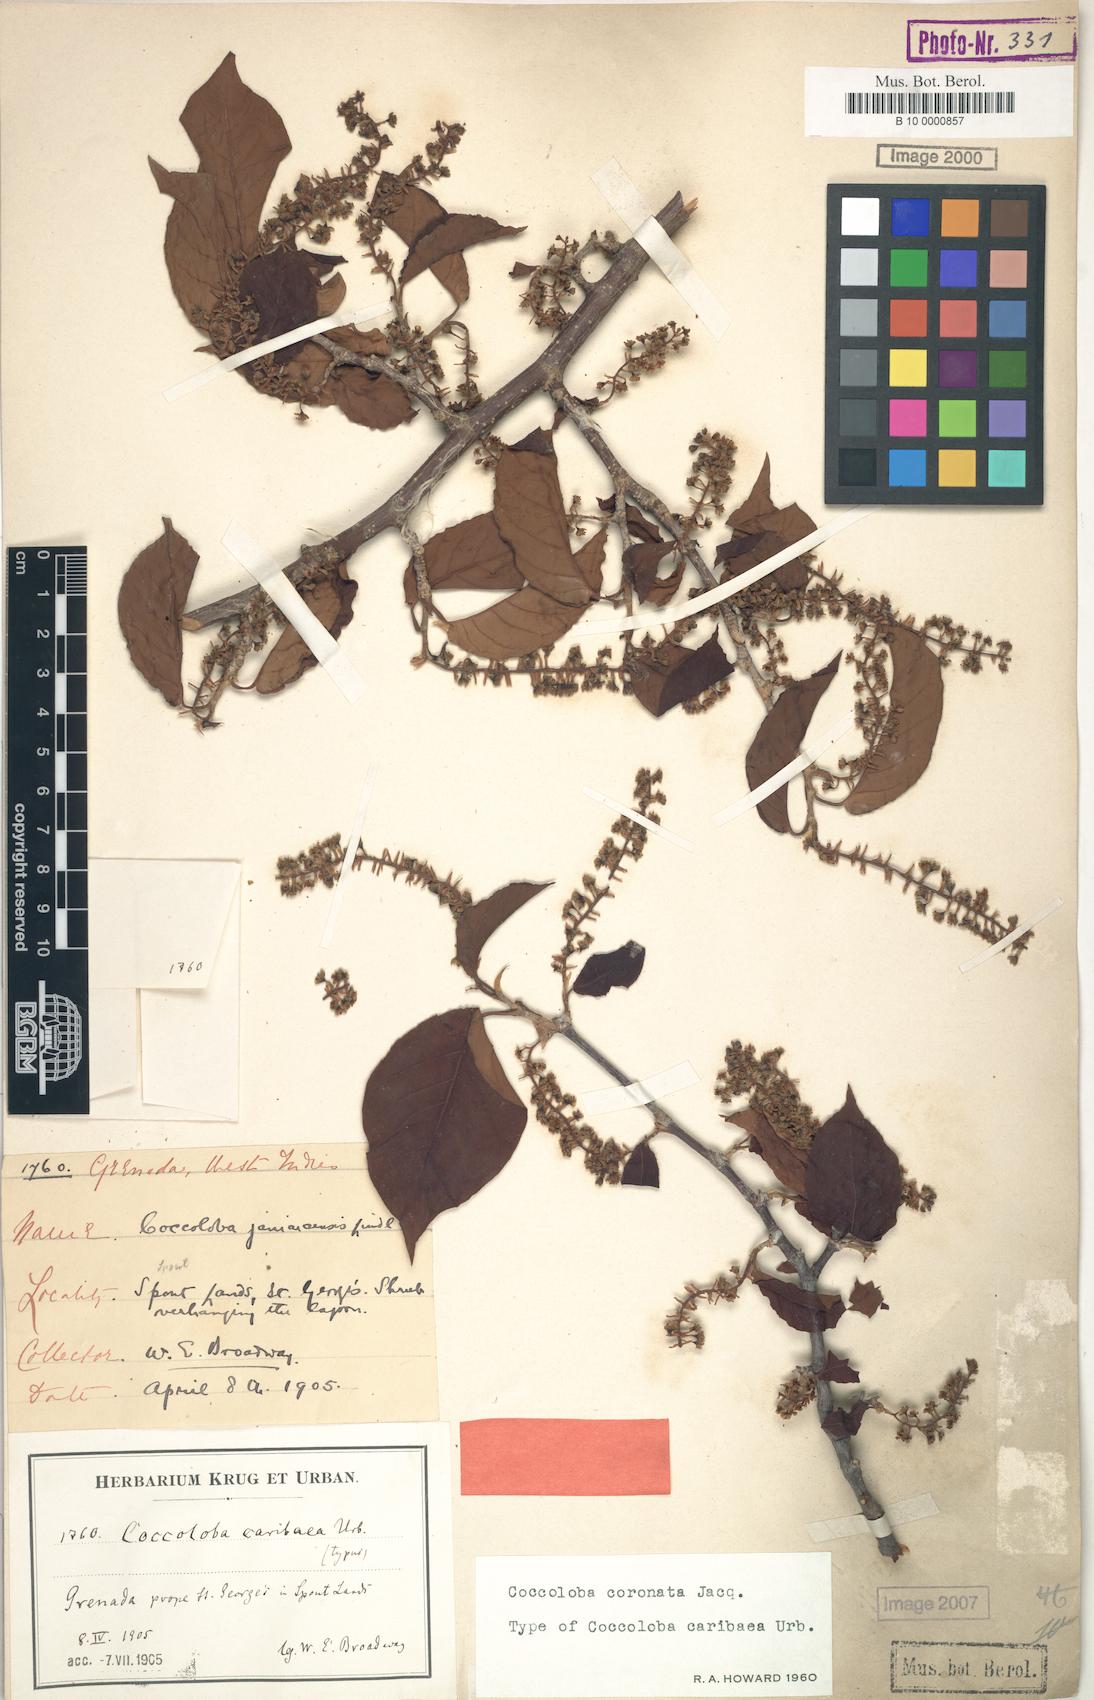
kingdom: Plantae
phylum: Tracheophyta
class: Magnoliopsida
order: Caryophyllales
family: Polygonaceae
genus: Coccoloba
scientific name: Coccoloba coronata
